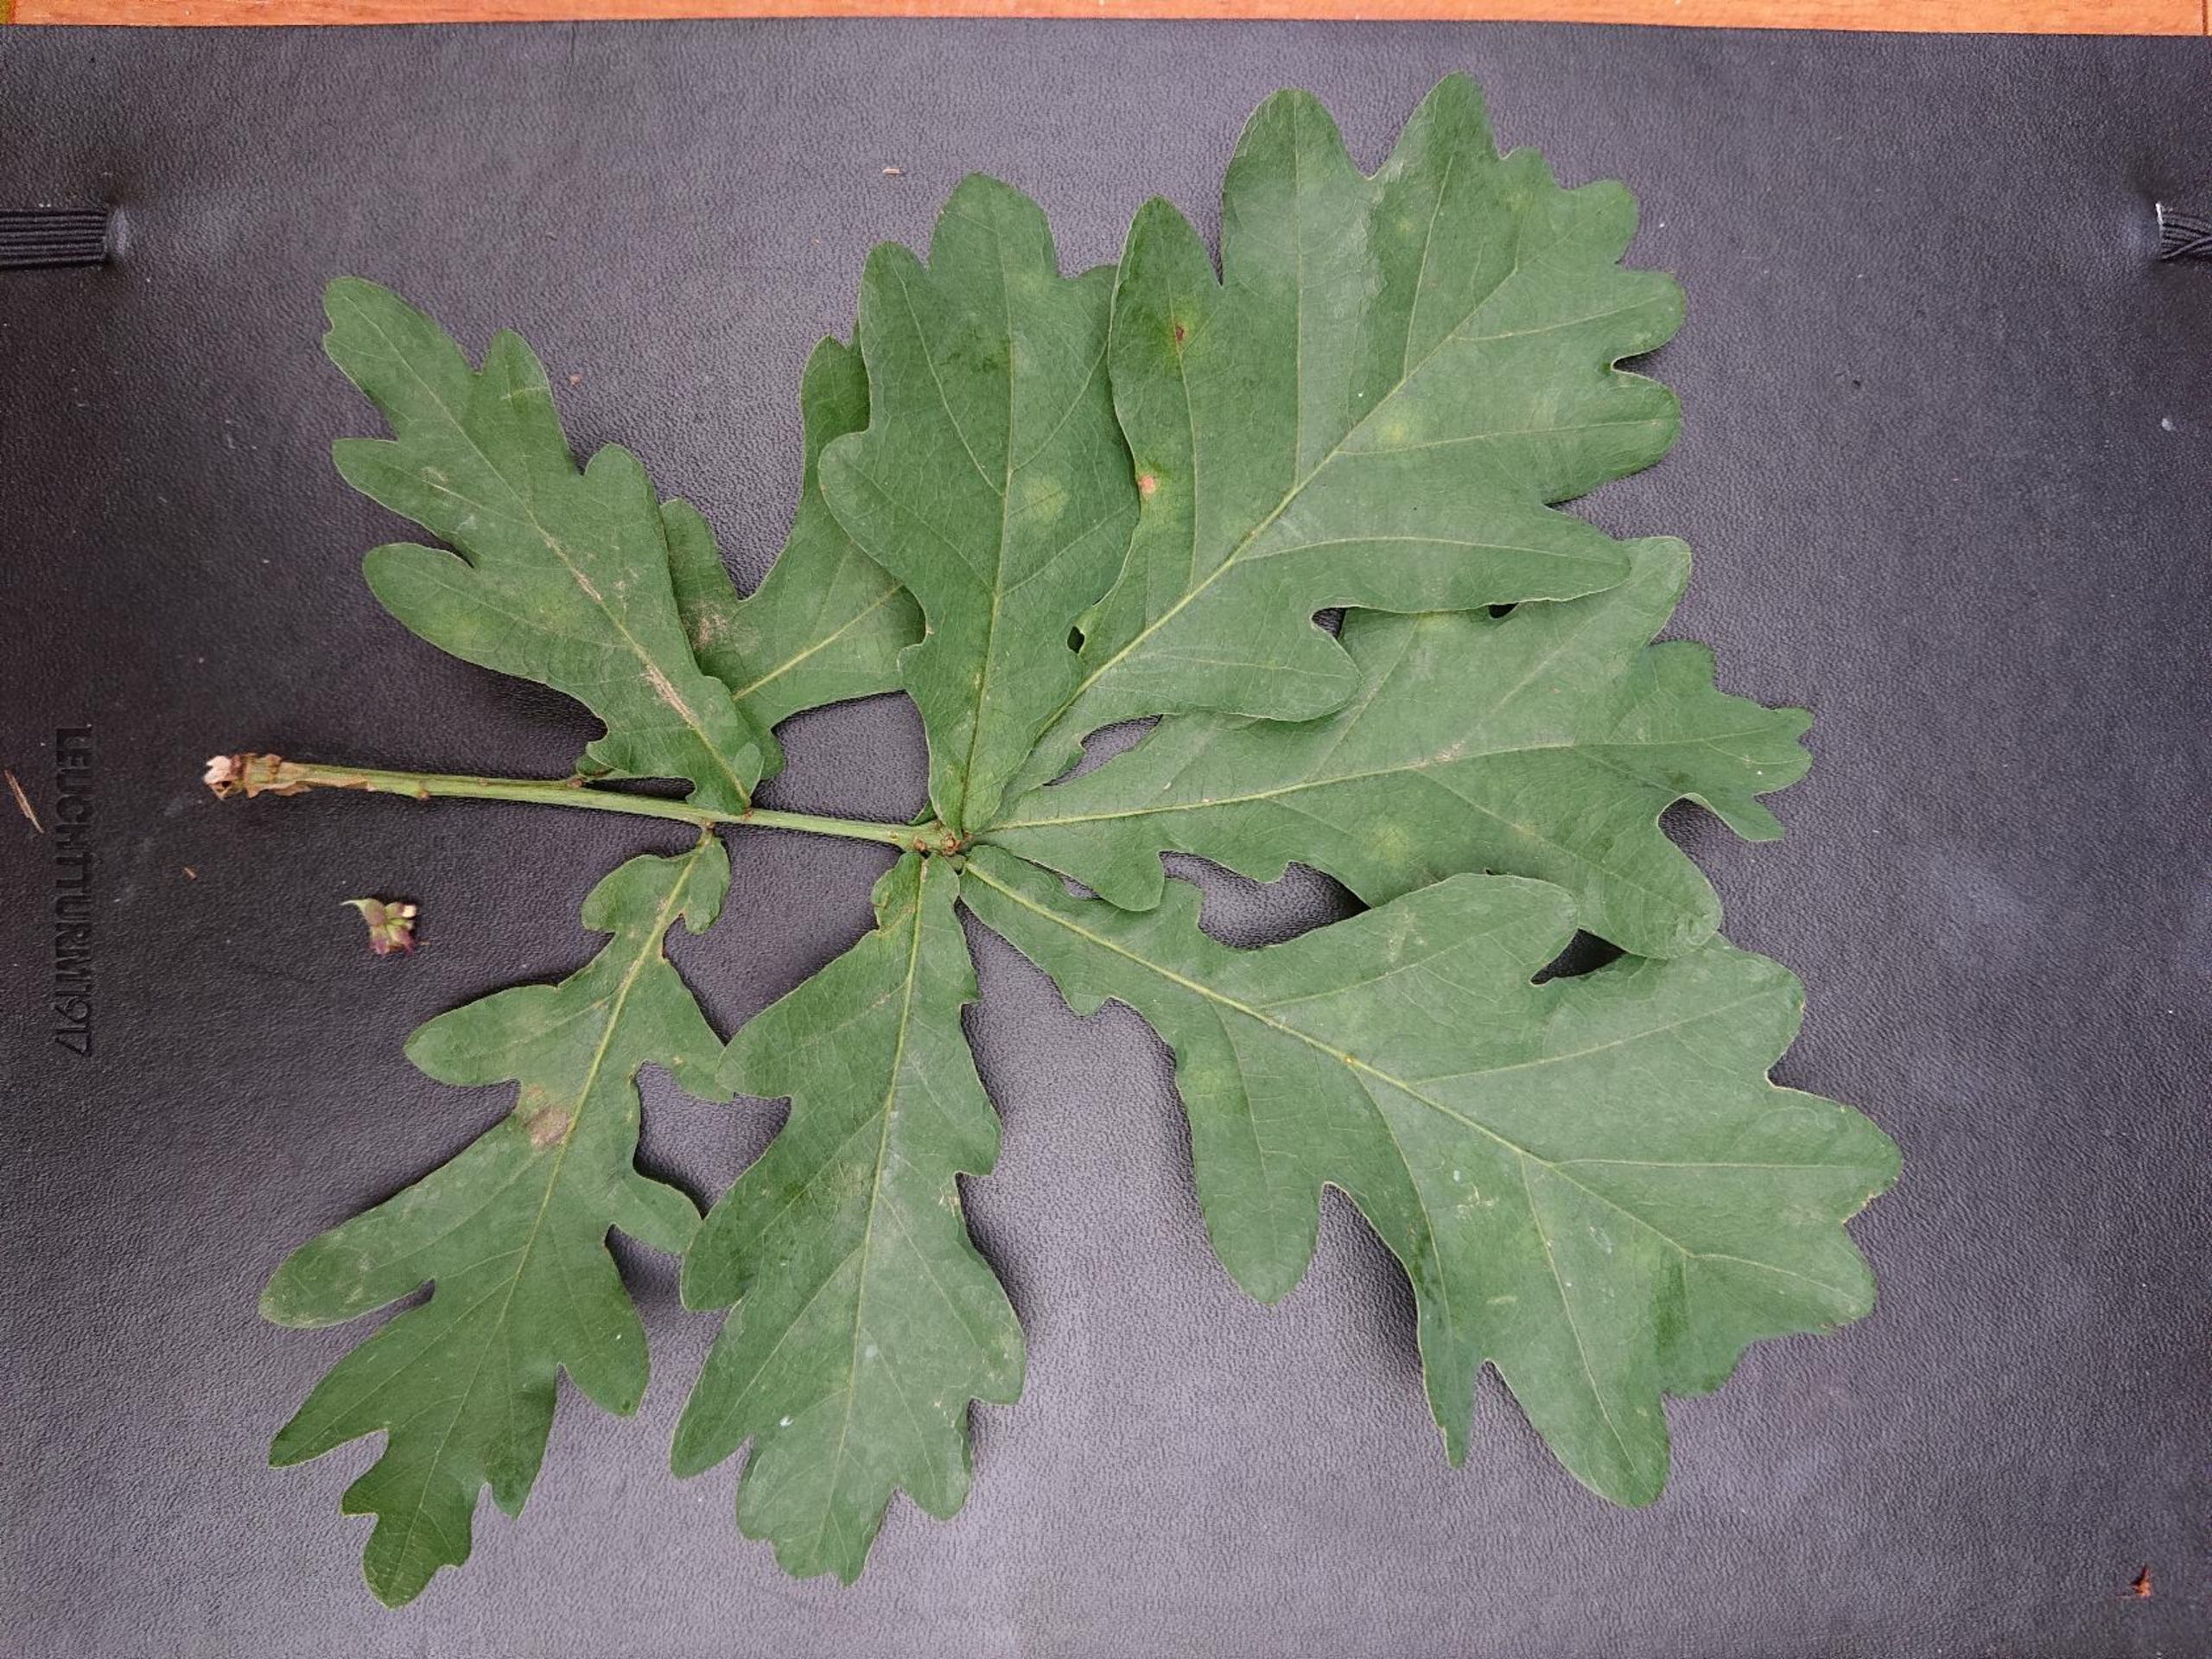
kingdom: Plantae
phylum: Tracheophyta
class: Magnoliopsida
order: Fagales
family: Fagaceae
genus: Quercus
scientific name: Quercus robur
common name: Stilk-eg/almindelig eg
